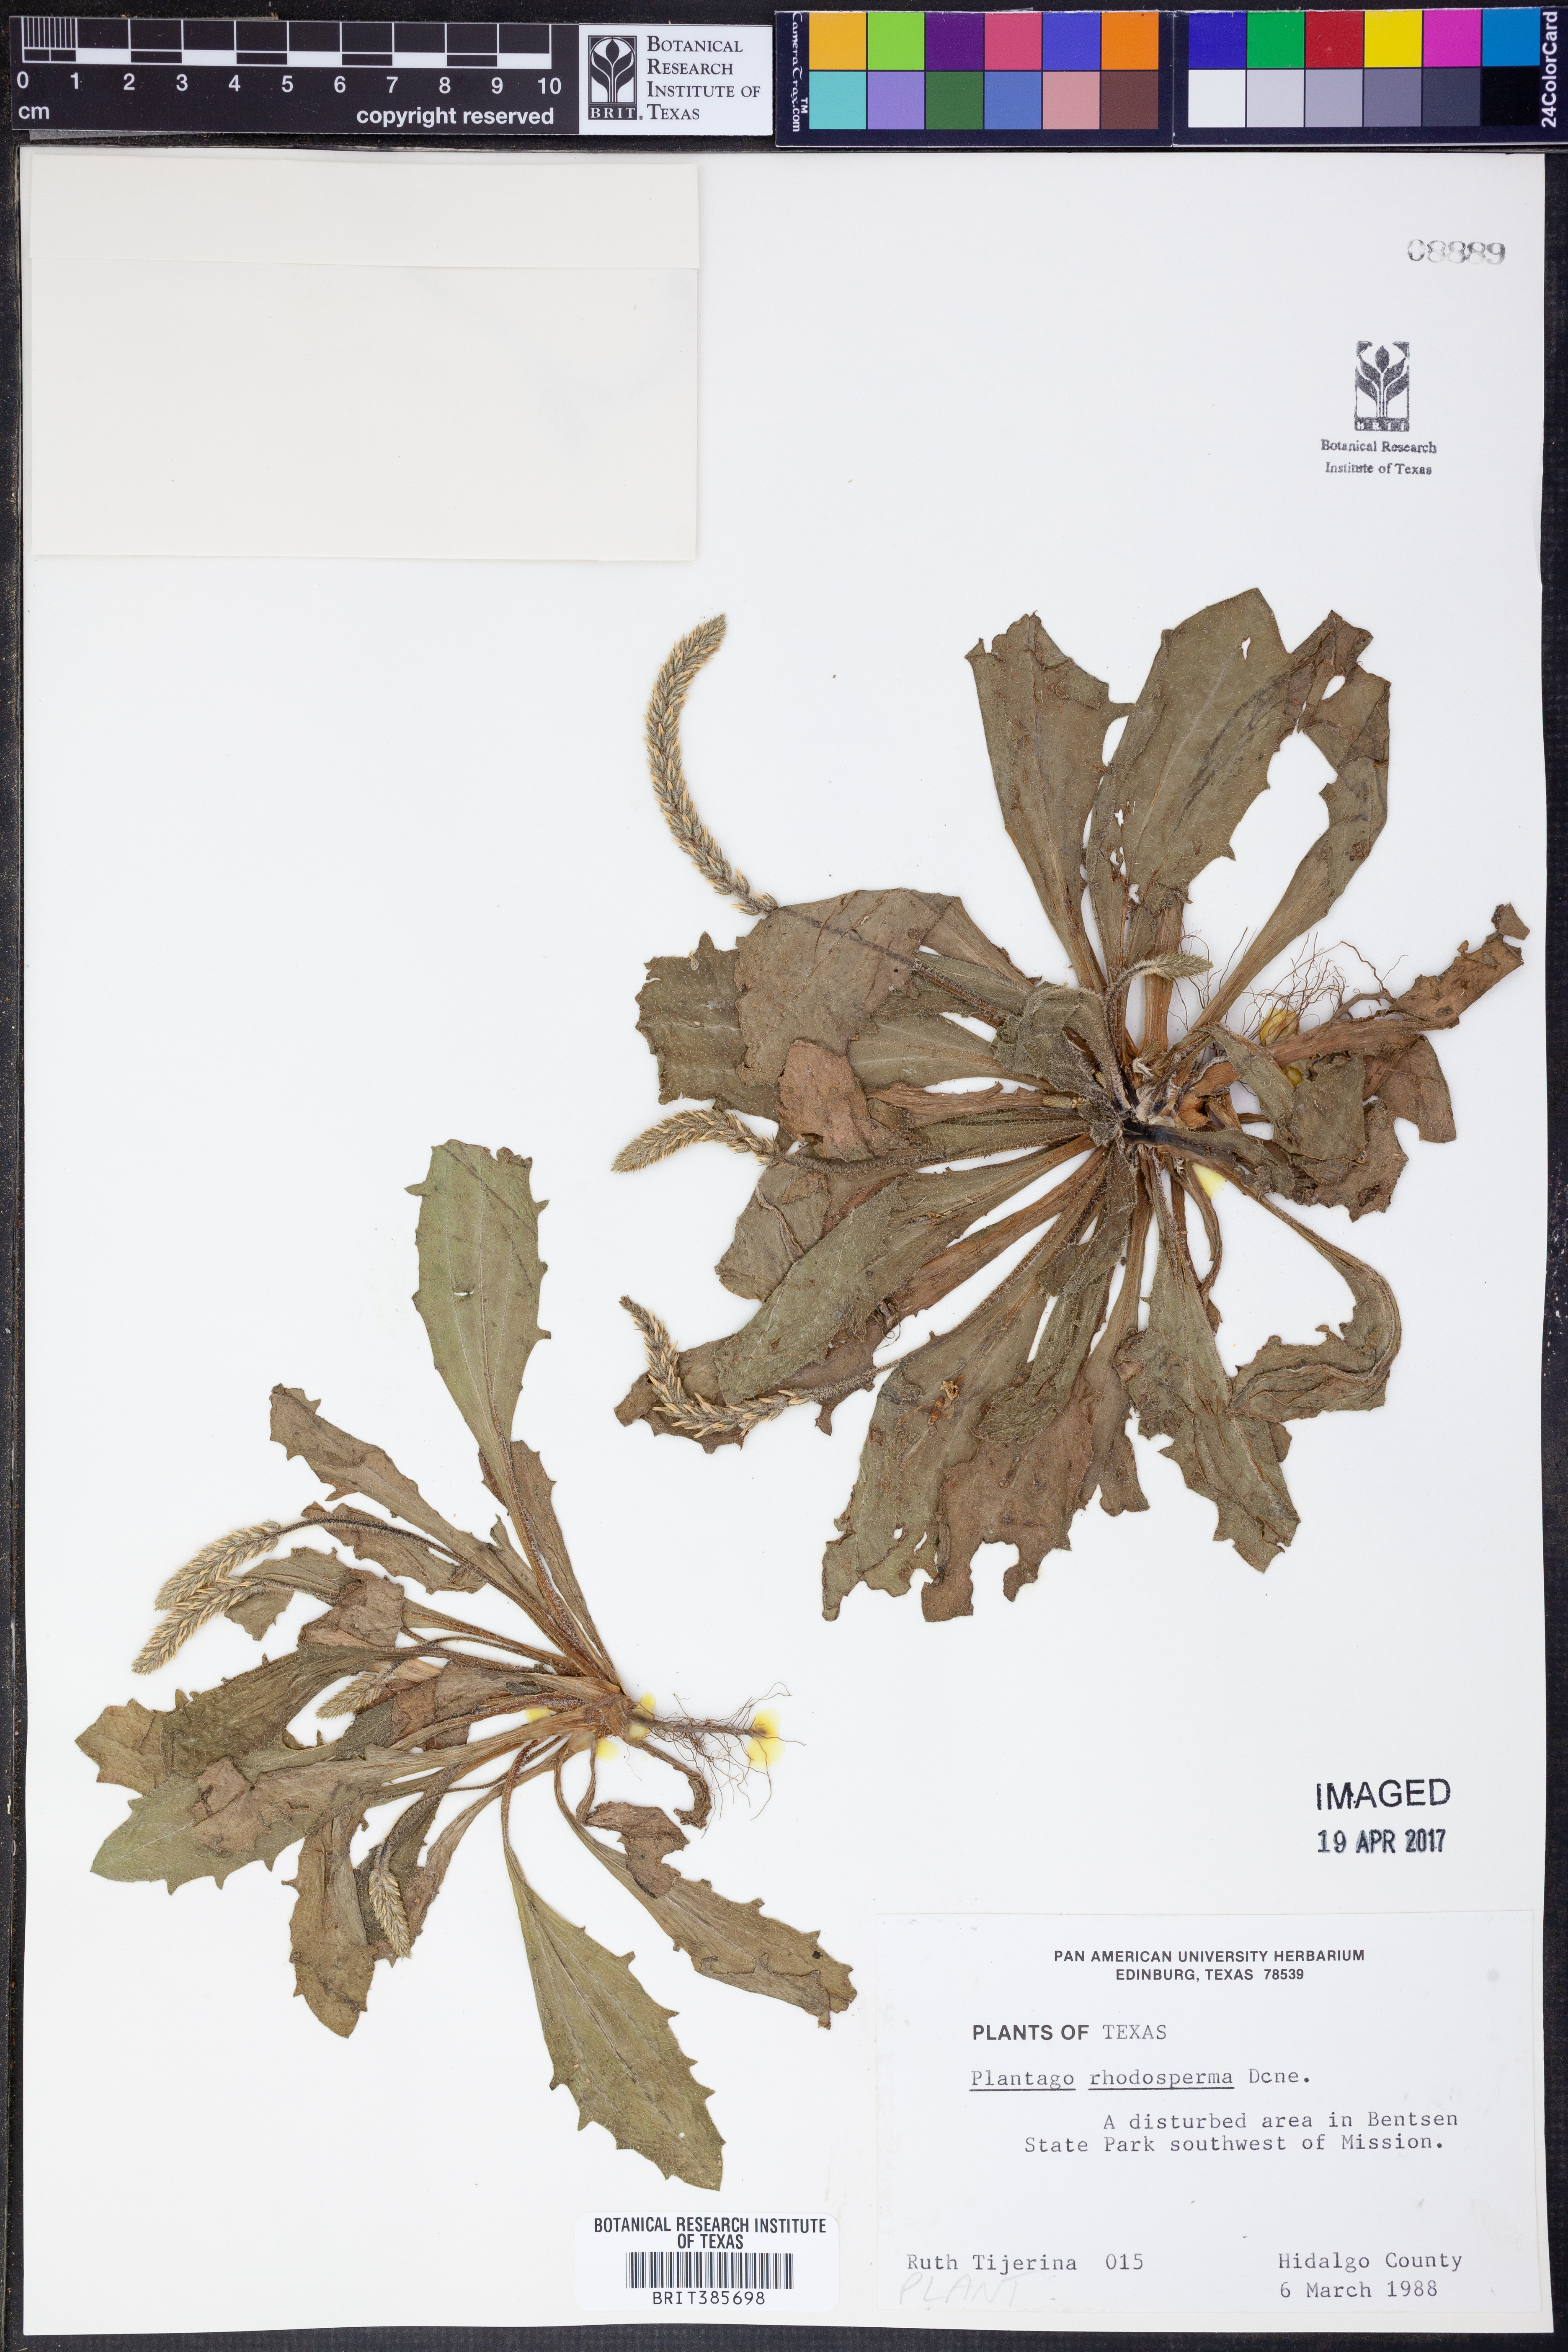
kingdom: Plantae
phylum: Tracheophyta
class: Magnoliopsida
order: Lamiales
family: Plantaginaceae
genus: Plantago
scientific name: Plantago rhodosperma
